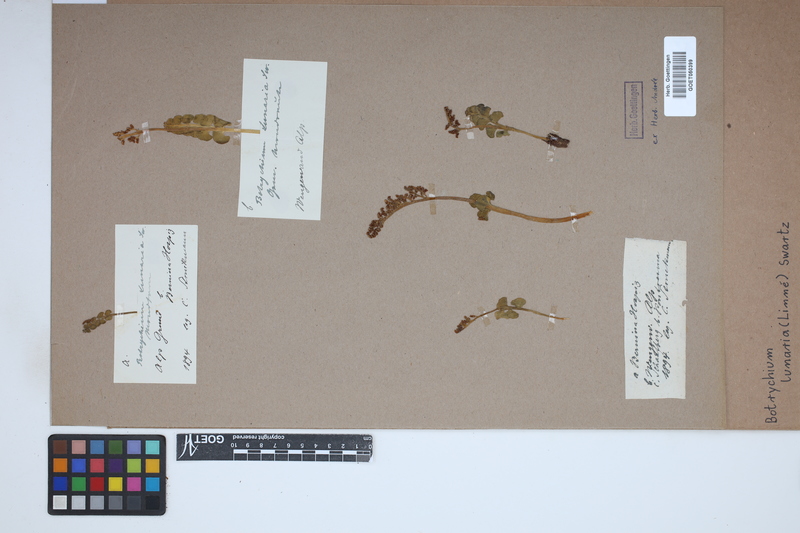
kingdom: Plantae
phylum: Tracheophyta
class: Polypodiopsida
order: Ophioglossales
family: Ophioglossaceae
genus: Botrychium
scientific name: Botrychium lunaria
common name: Moonwort
